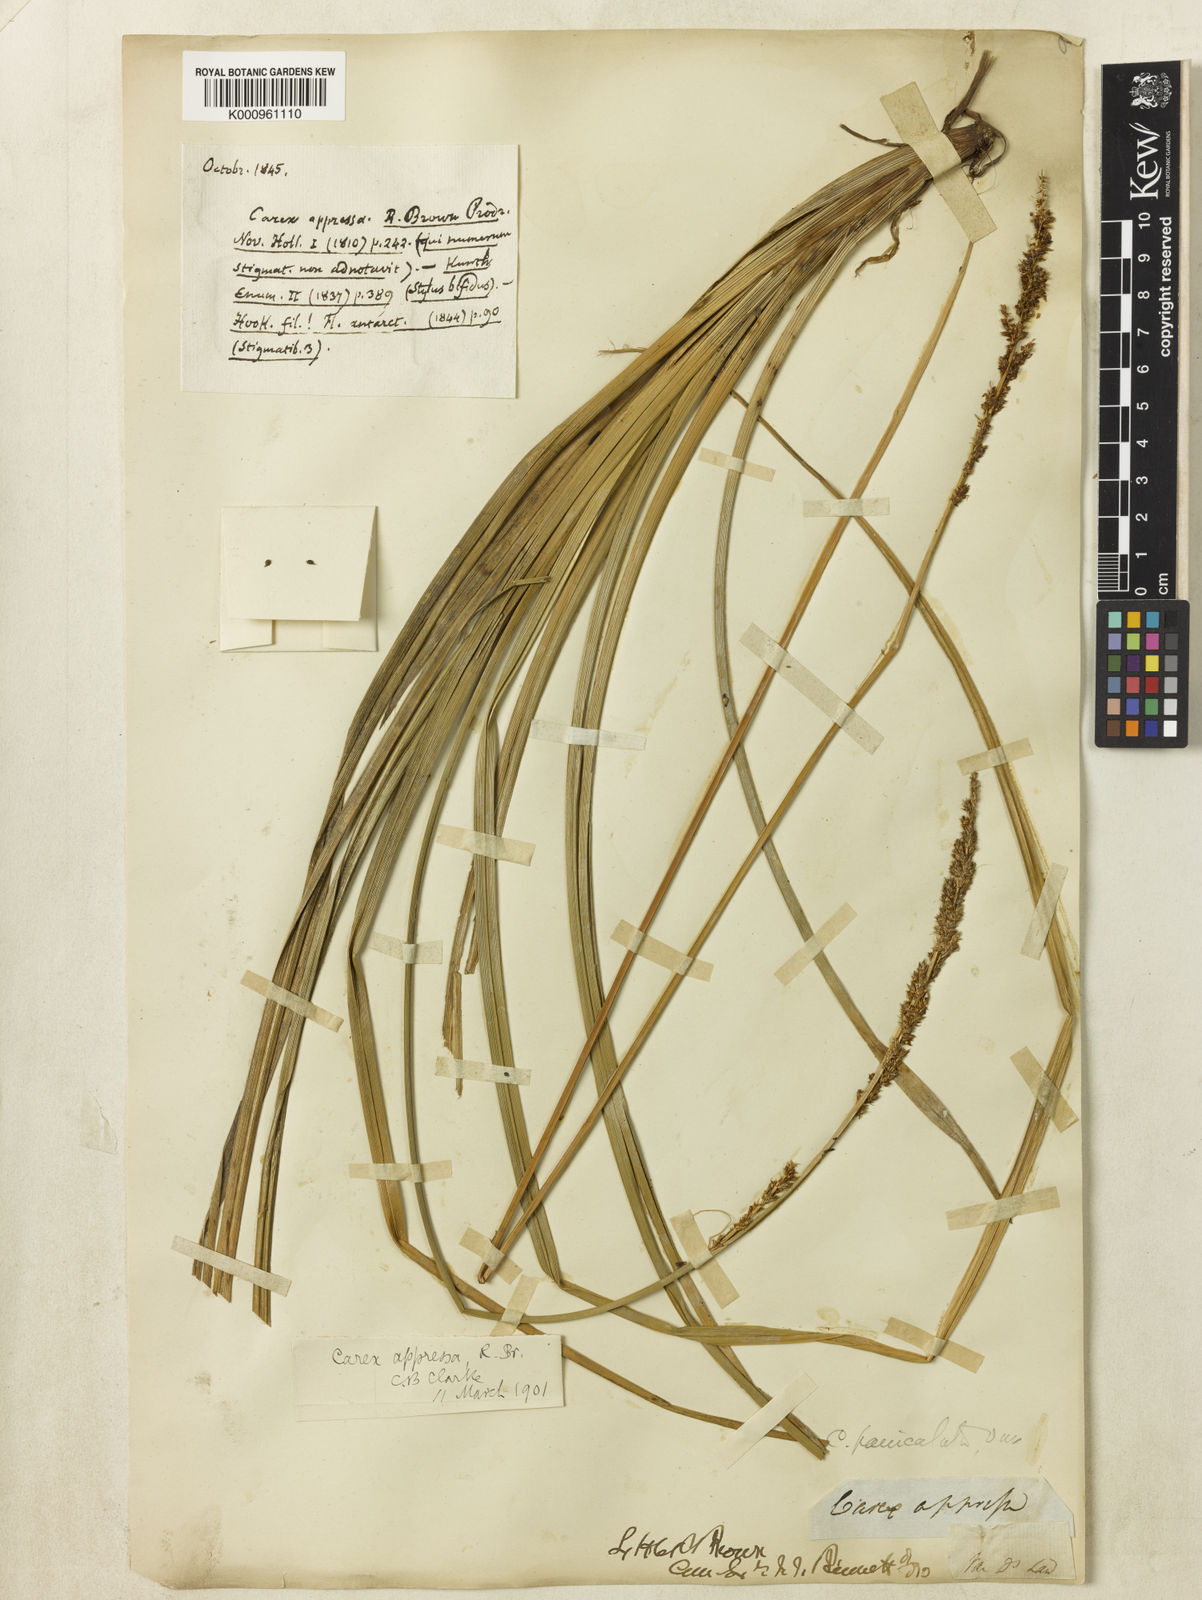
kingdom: Plantae
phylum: Tracheophyta
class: Liliopsida
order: Poales
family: Cyperaceae
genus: Carex
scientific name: Carex appressa
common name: Tussock sedge
